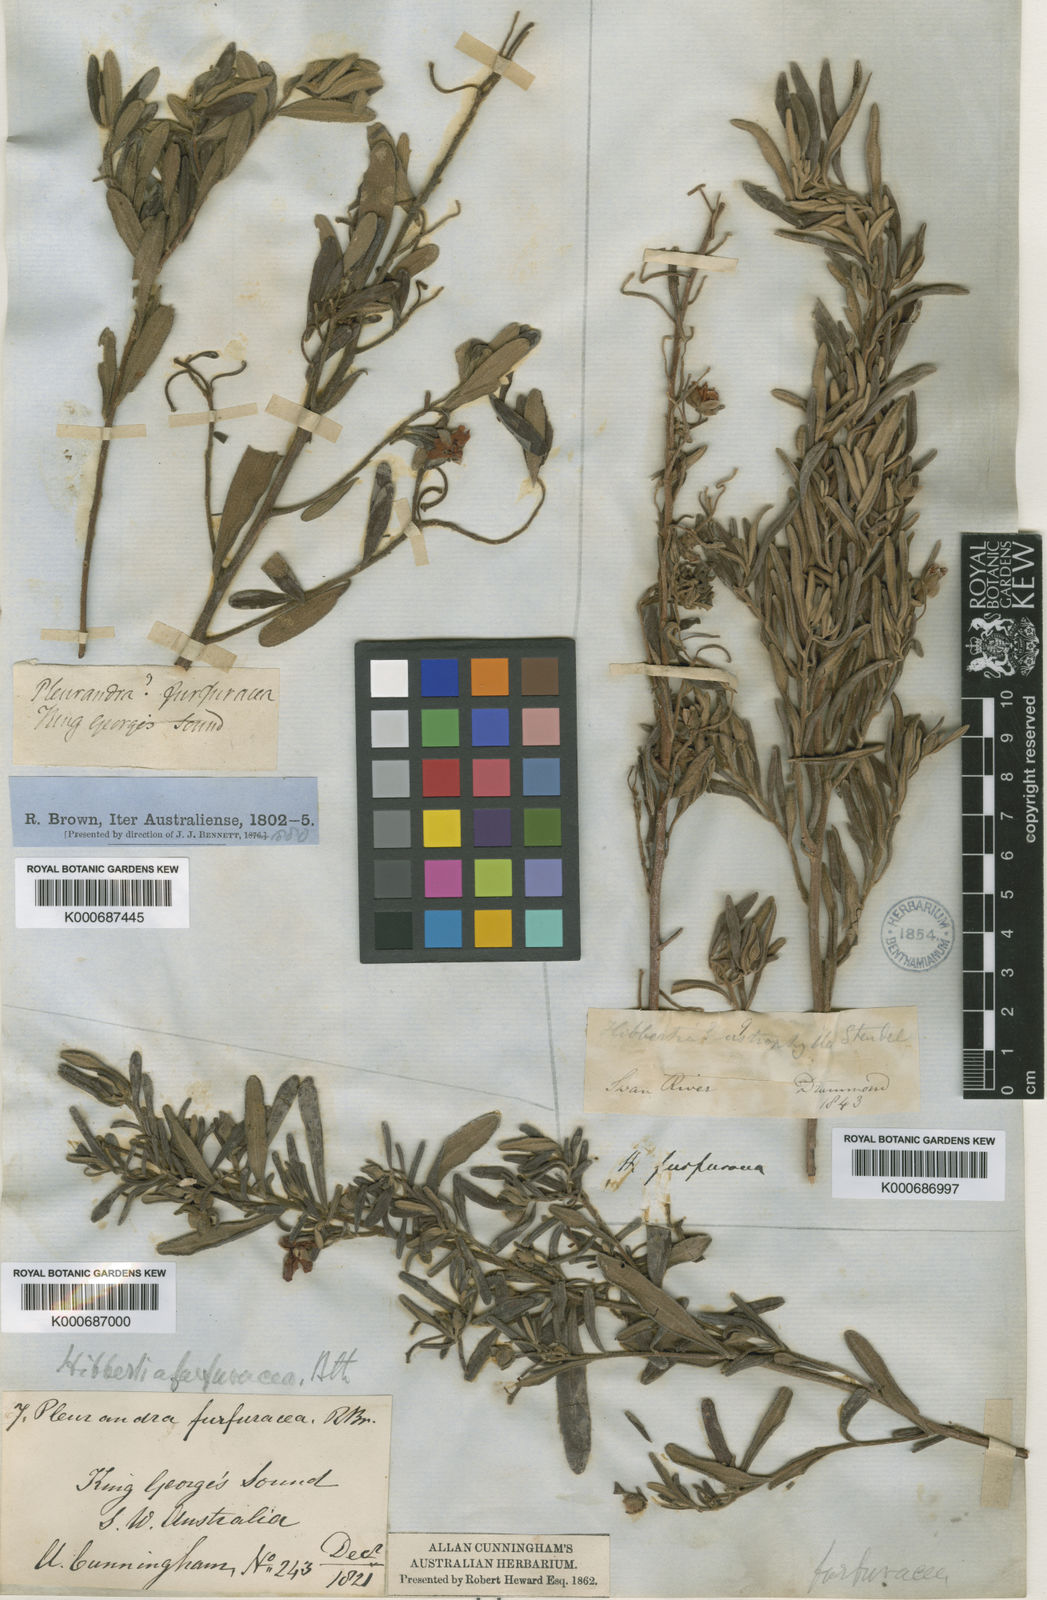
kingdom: Plantae
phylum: Tracheophyta
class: Magnoliopsida
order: Dilleniales
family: Dilleniaceae
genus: Hibbertia
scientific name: Hibbertia furfuracea
